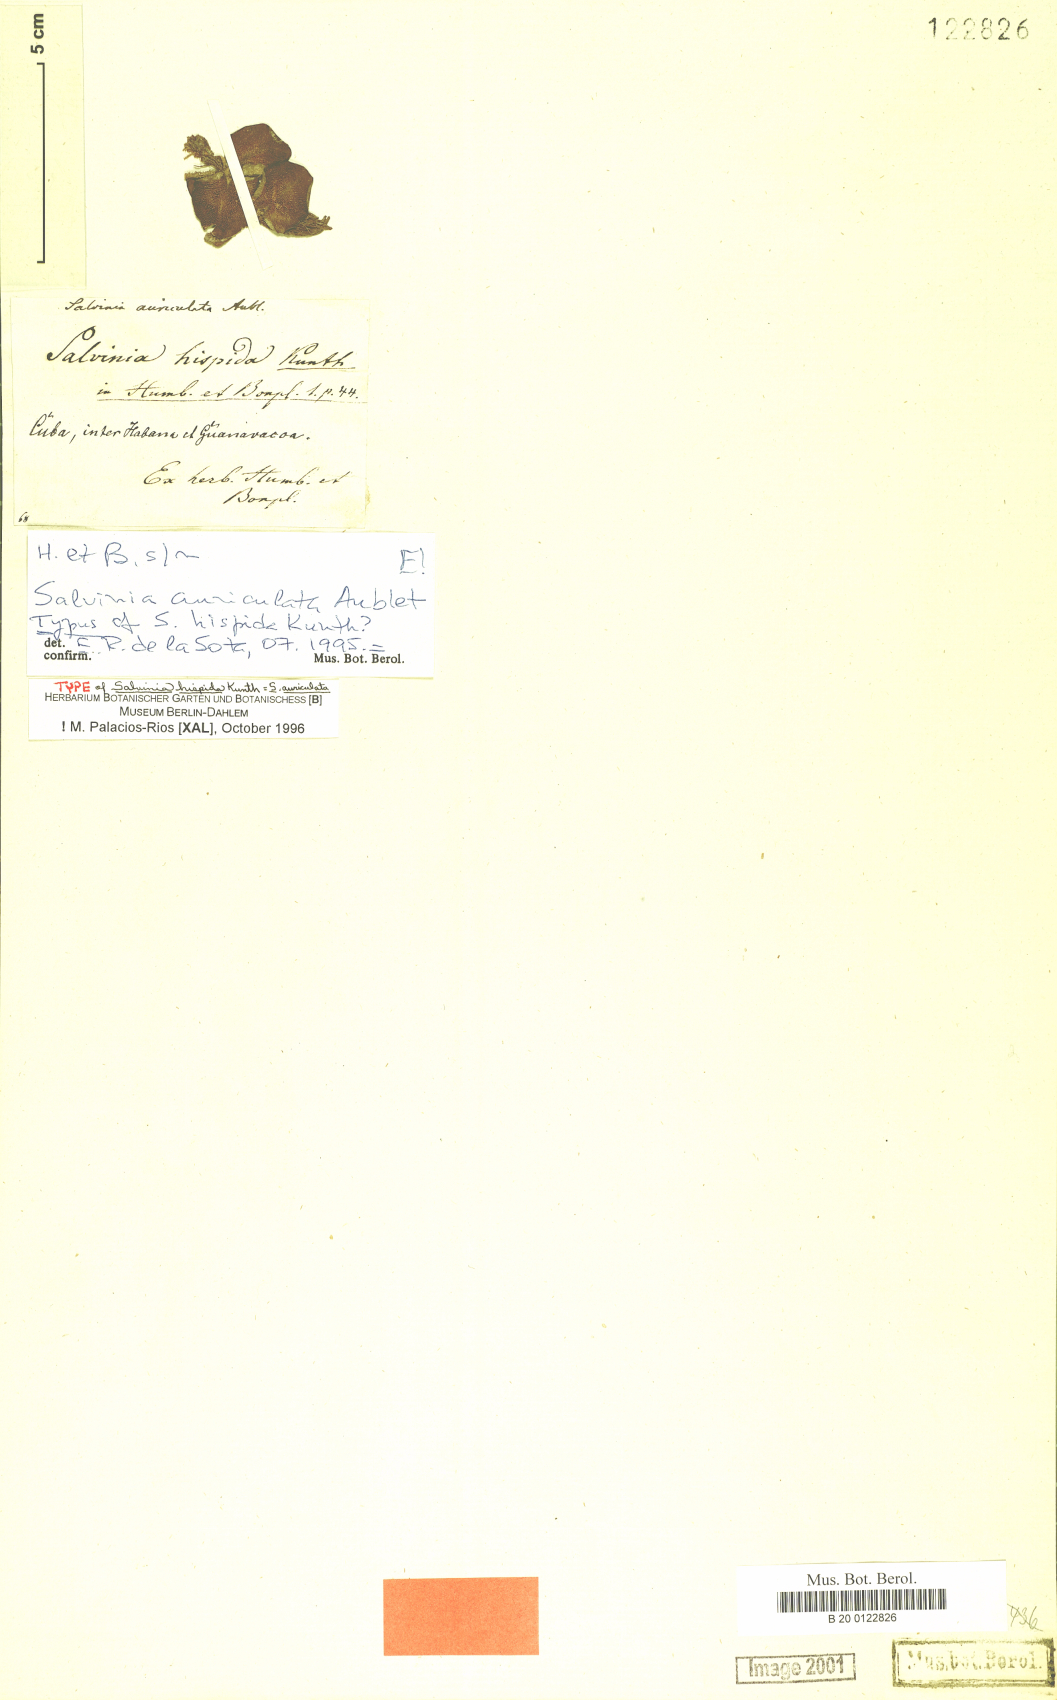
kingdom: Plantae
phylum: Tracheophyta
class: Polypodiopsida
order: Salviniales
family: Salviniaceae
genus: Salvinia
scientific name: Salvinia auriculata
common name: African payal
